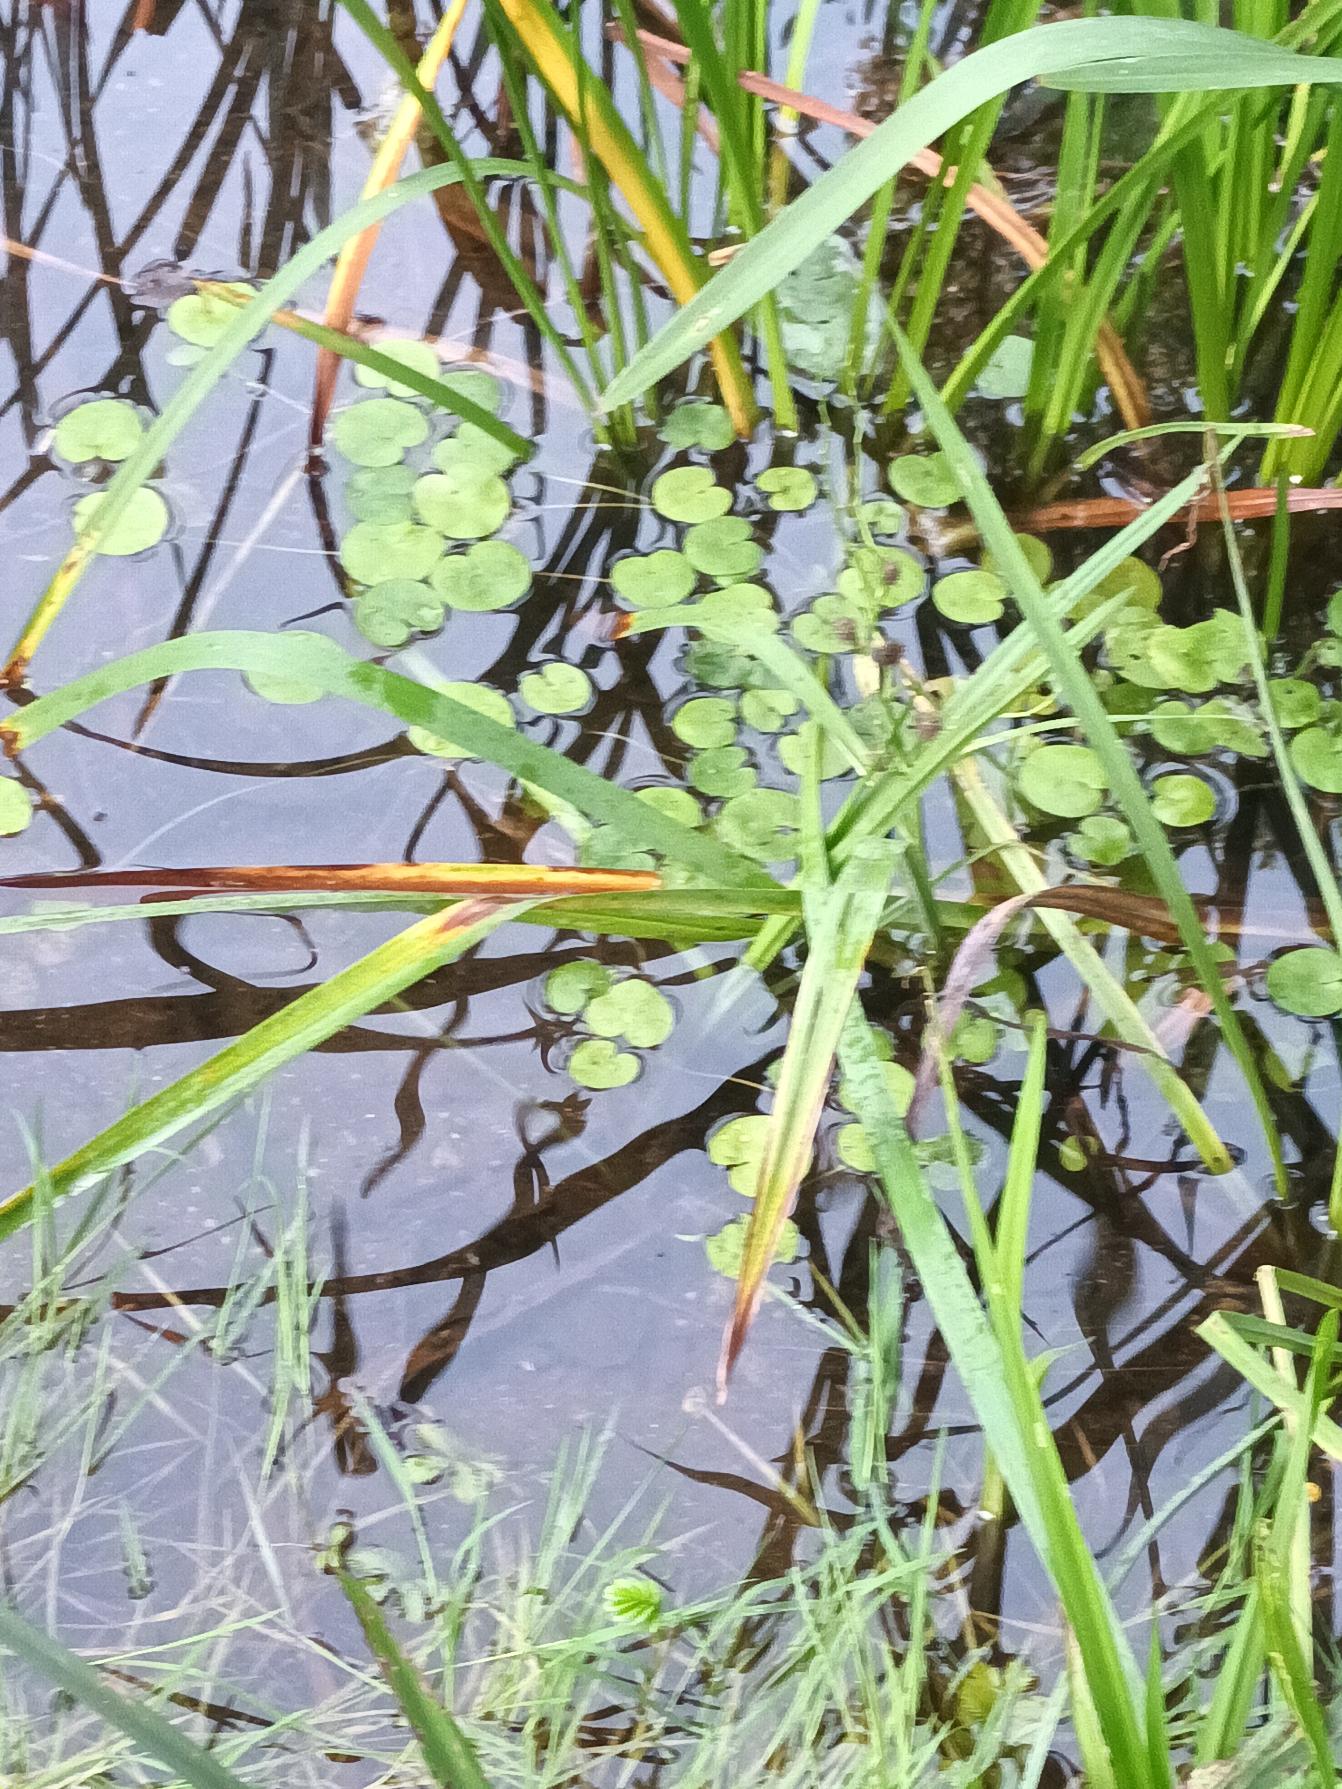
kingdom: Plantae
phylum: Tracheophyta
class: Liliopsida
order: Alismatales
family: Hydrocharitaceae
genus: Hydrocharis
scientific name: Hydrocharis morsus-ranae
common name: Frøbid
